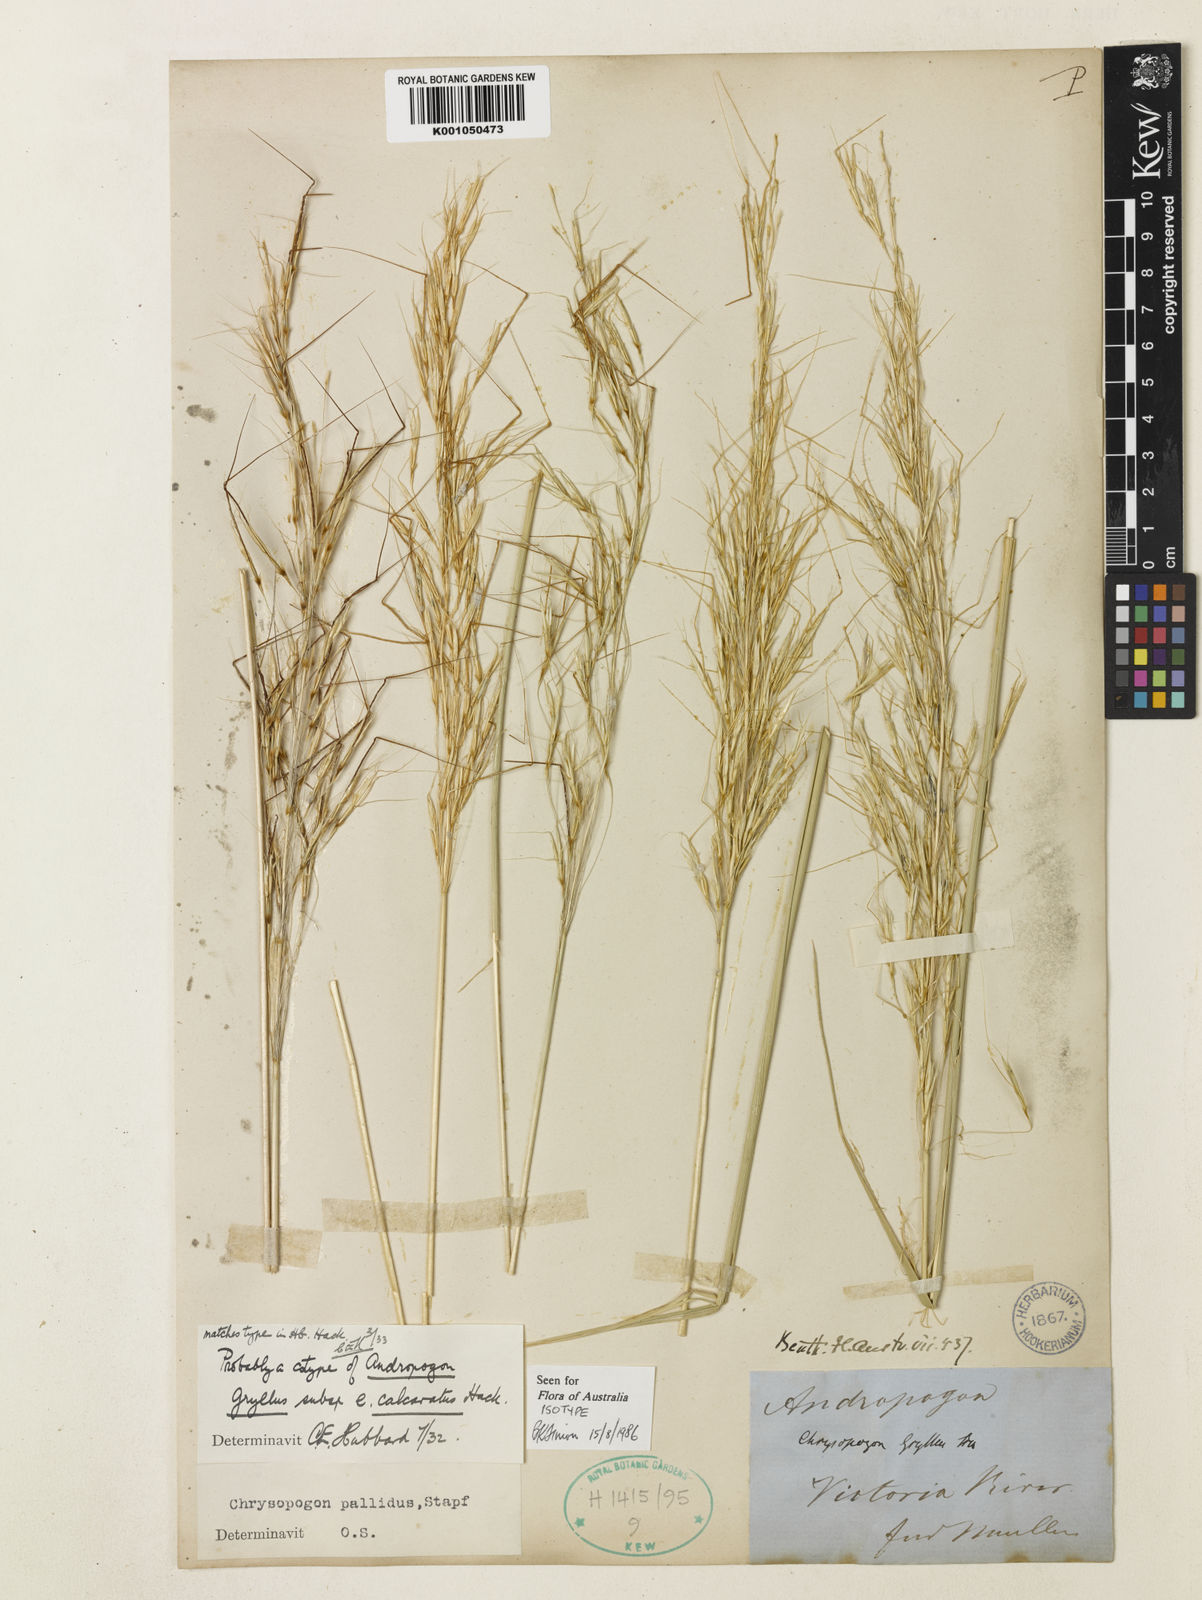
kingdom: Plantae
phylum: Tracheophyta
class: Liliopsida
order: Poales
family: Poaceae
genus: Chrysopogon
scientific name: Chrysopogon pallidus
